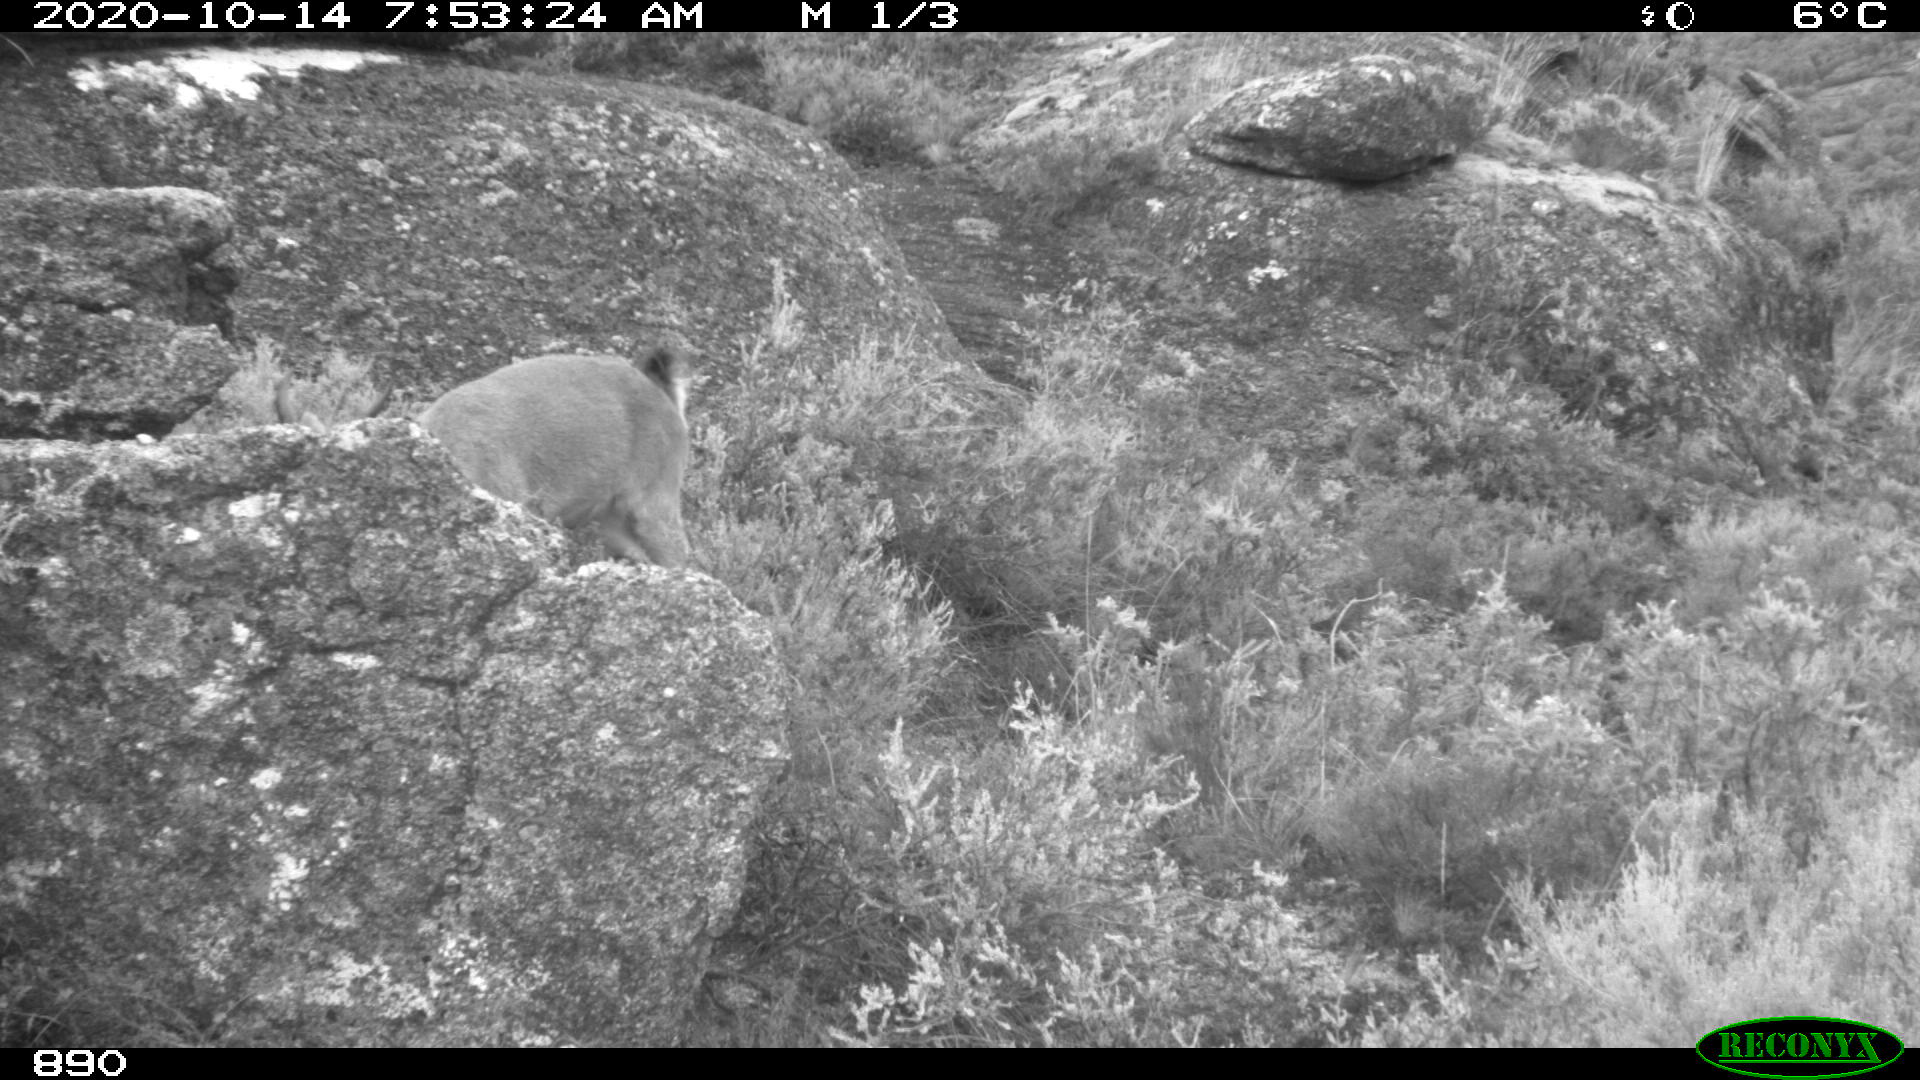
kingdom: Animalia
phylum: Chordata
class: Mammalia
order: Artiodactyla
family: Bovidae
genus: Capra
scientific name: Capra pyrenaica
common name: Spanish ibex
